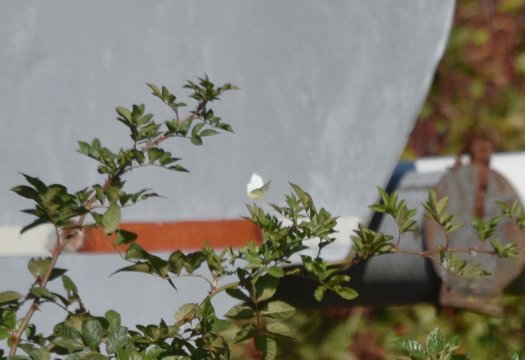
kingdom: Animalia
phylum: Arthropoda
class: Insecta
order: Lepidoptera
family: Pieridae
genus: Pieris
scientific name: Pieris rapae
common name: Cabbage White
